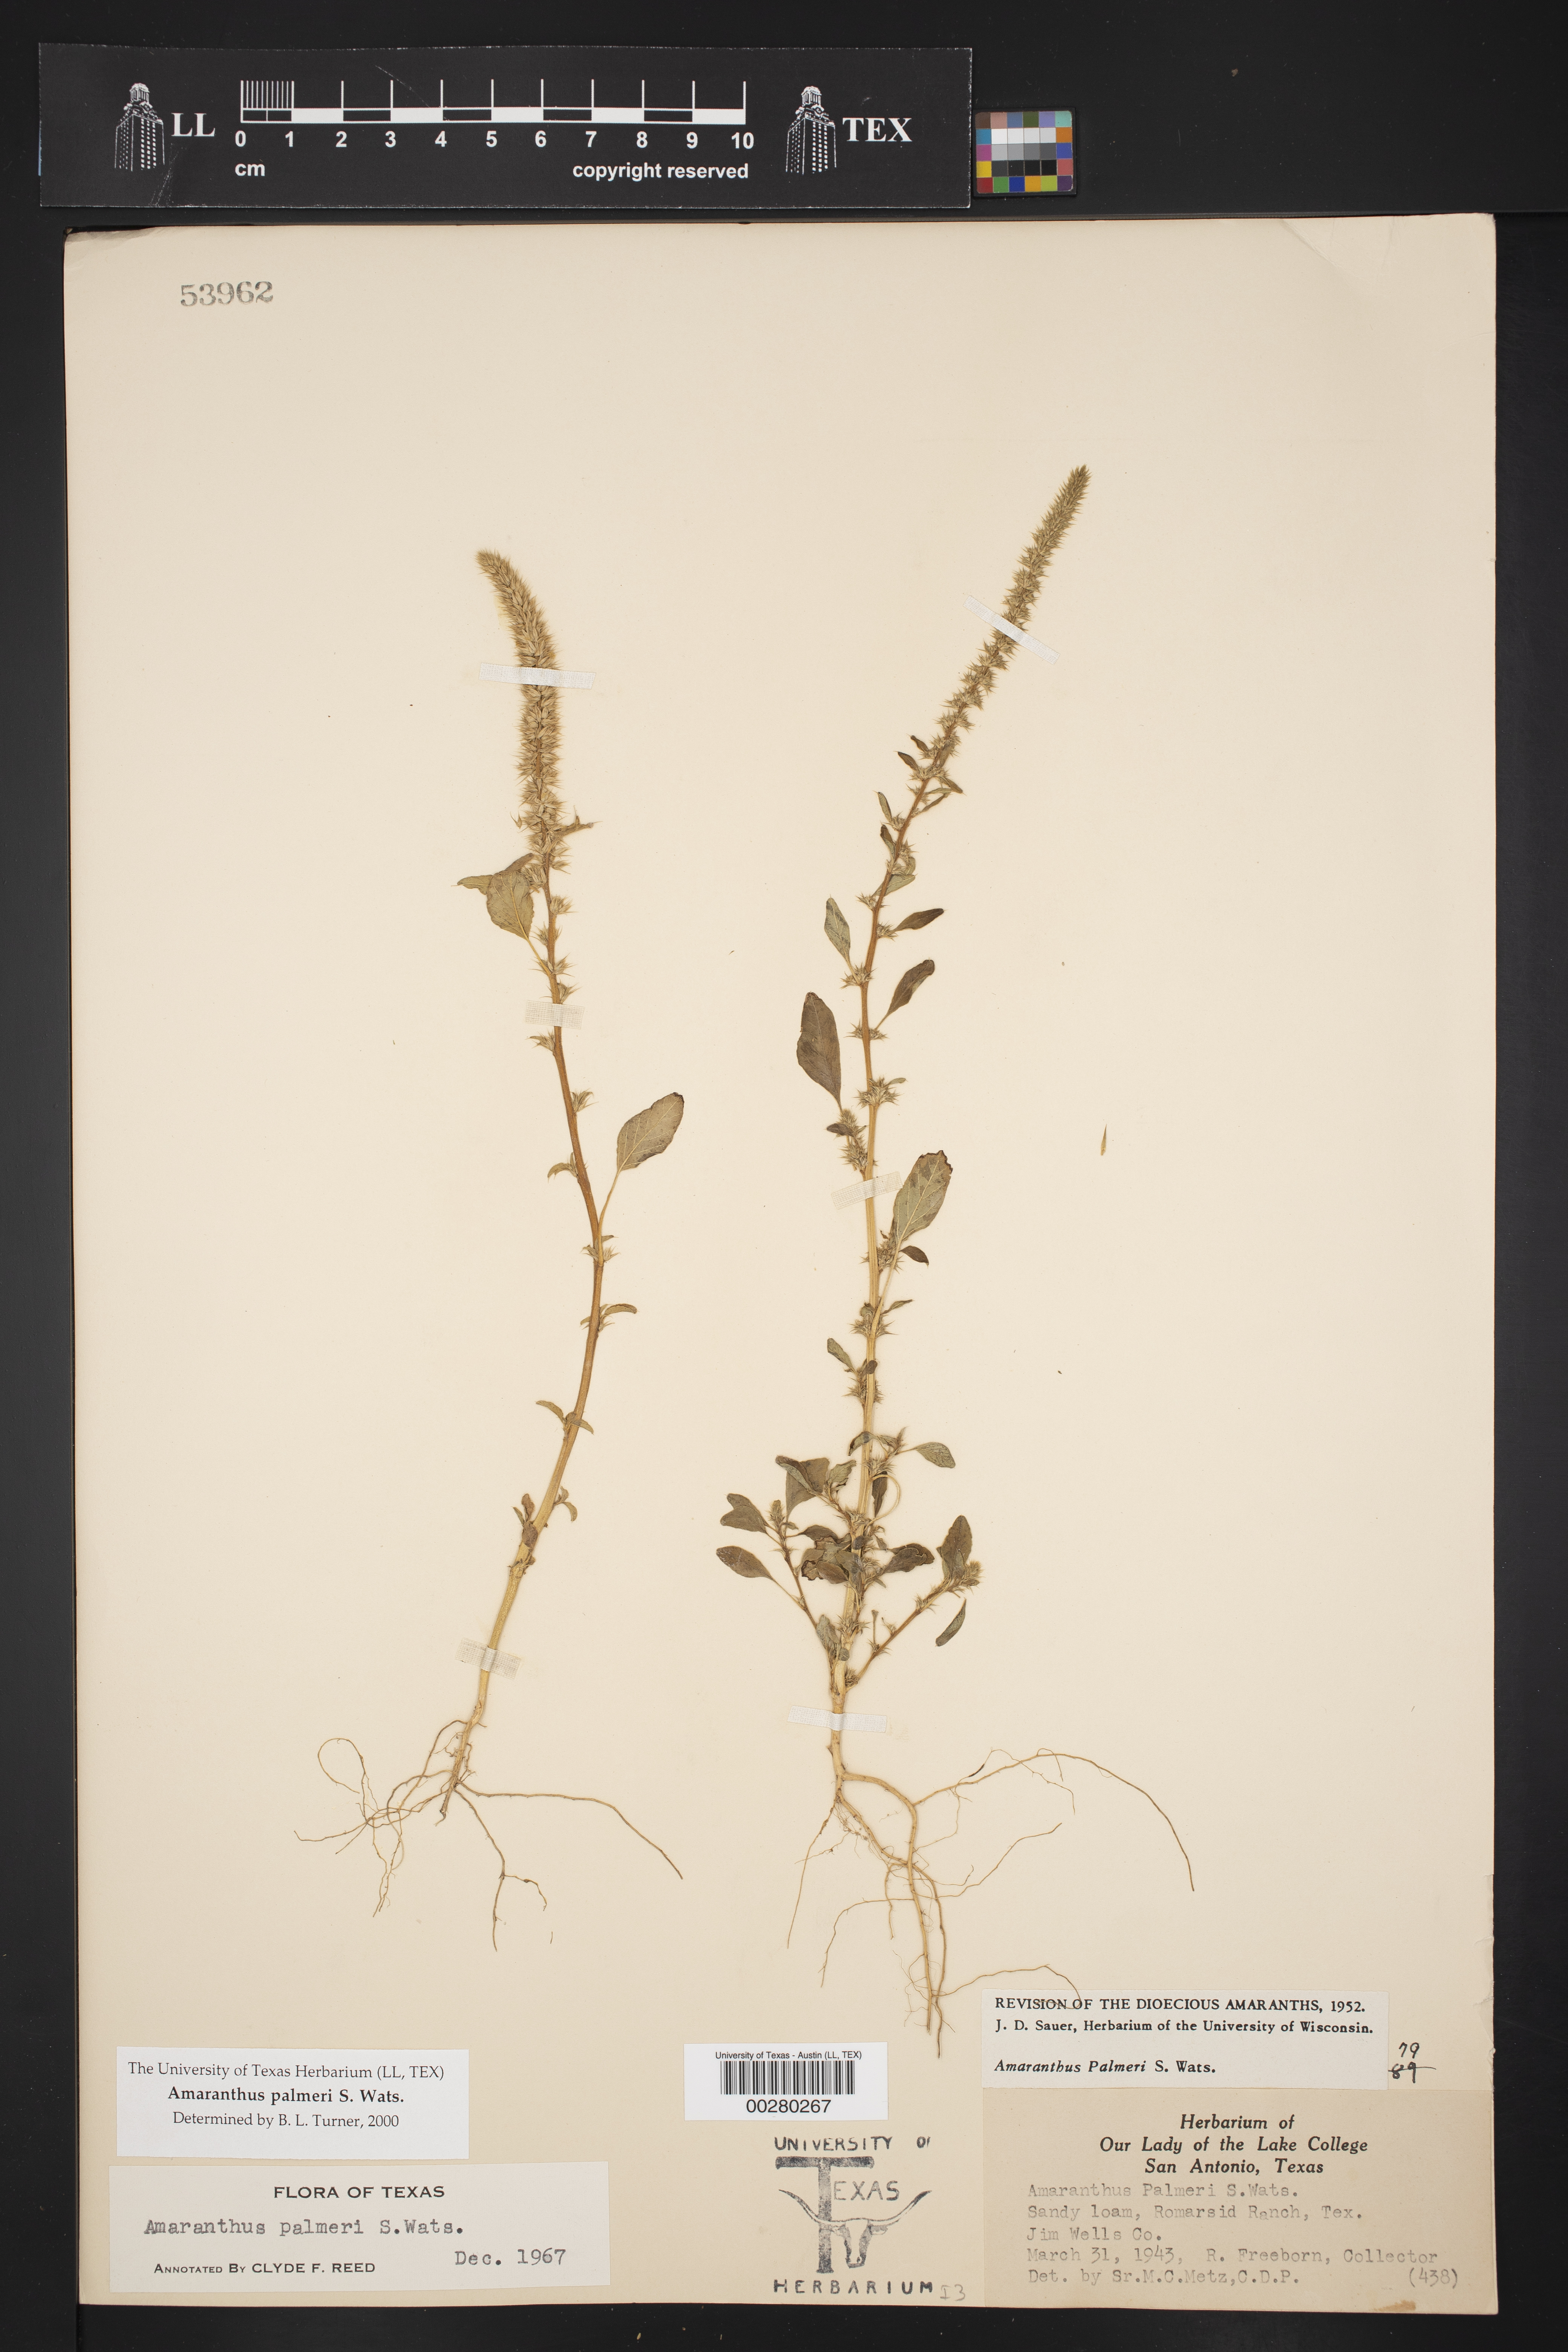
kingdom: Plantae
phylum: Tracheophyta
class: Magnoliopsida
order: Caryophyllales
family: Amaranthaceae
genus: Amaranthus
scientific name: Amaranthus palmeri
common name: Dioecious amaranth
